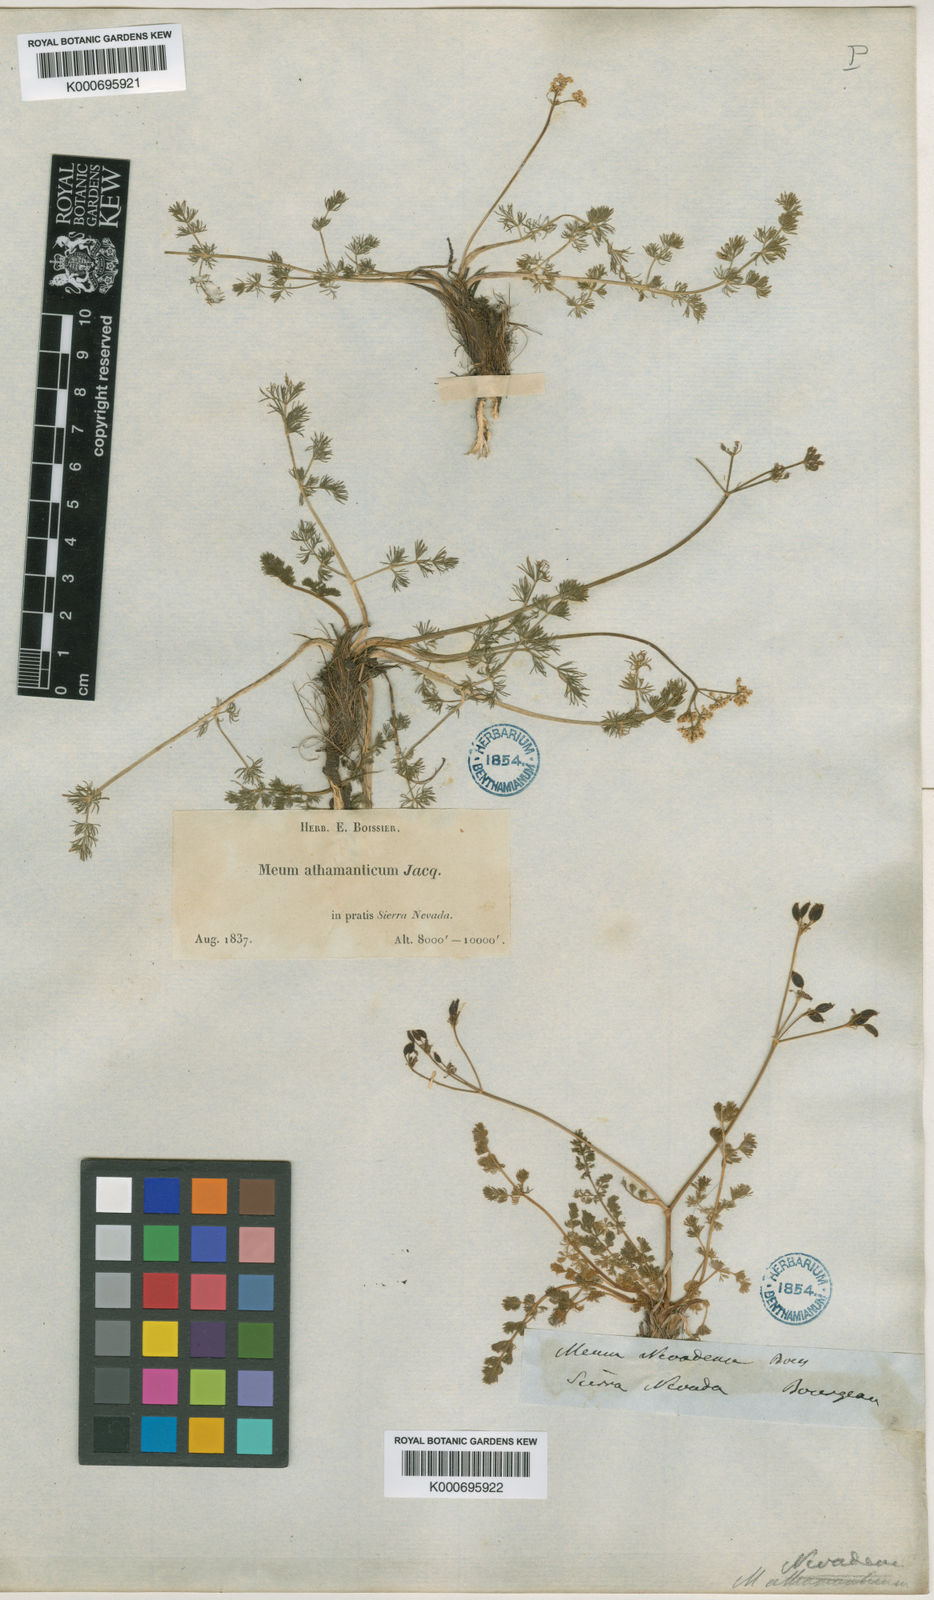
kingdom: Plantae
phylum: Tracheophyta
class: Magnoliopsida
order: Apiales
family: Apiaceae
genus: Meum
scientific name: Meum athamanticum
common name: Spignel
